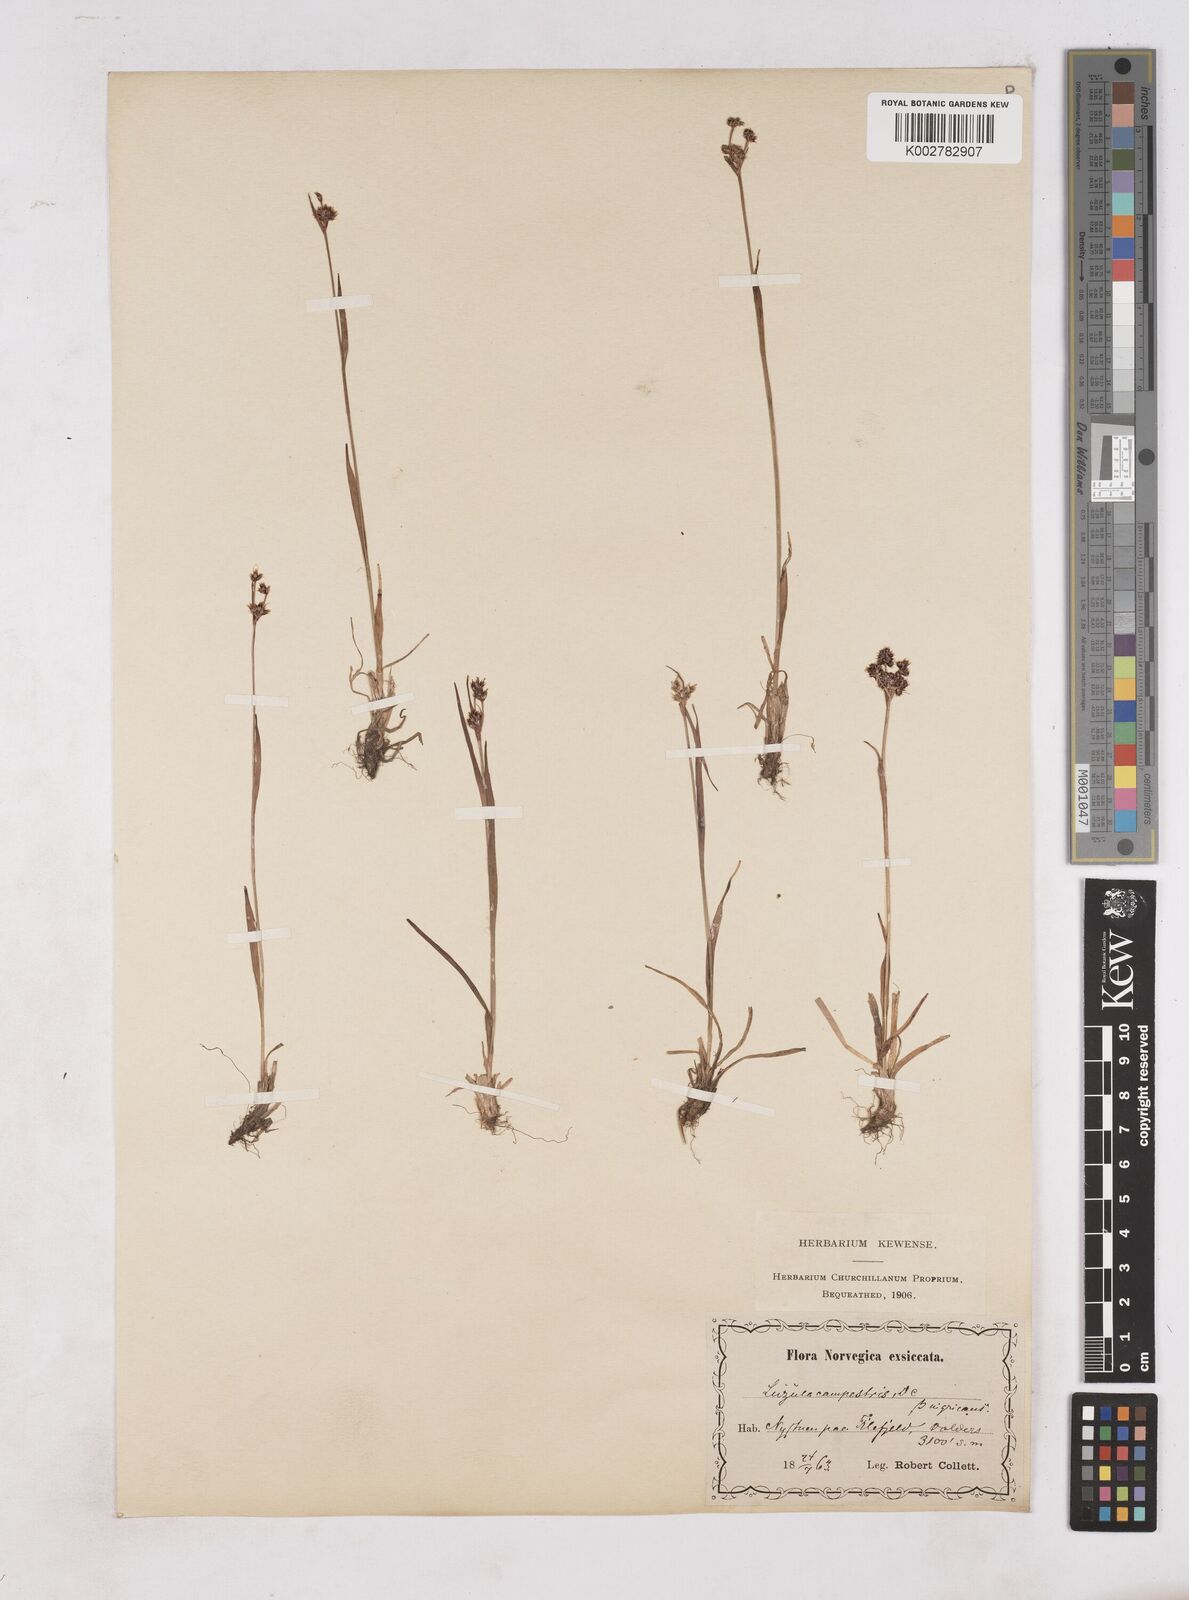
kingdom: Plantae
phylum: Tracheophyta
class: Liliopsida
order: Poales
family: Juncaceae
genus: Luzula
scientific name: Luzula campestris
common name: Field wood-rush
